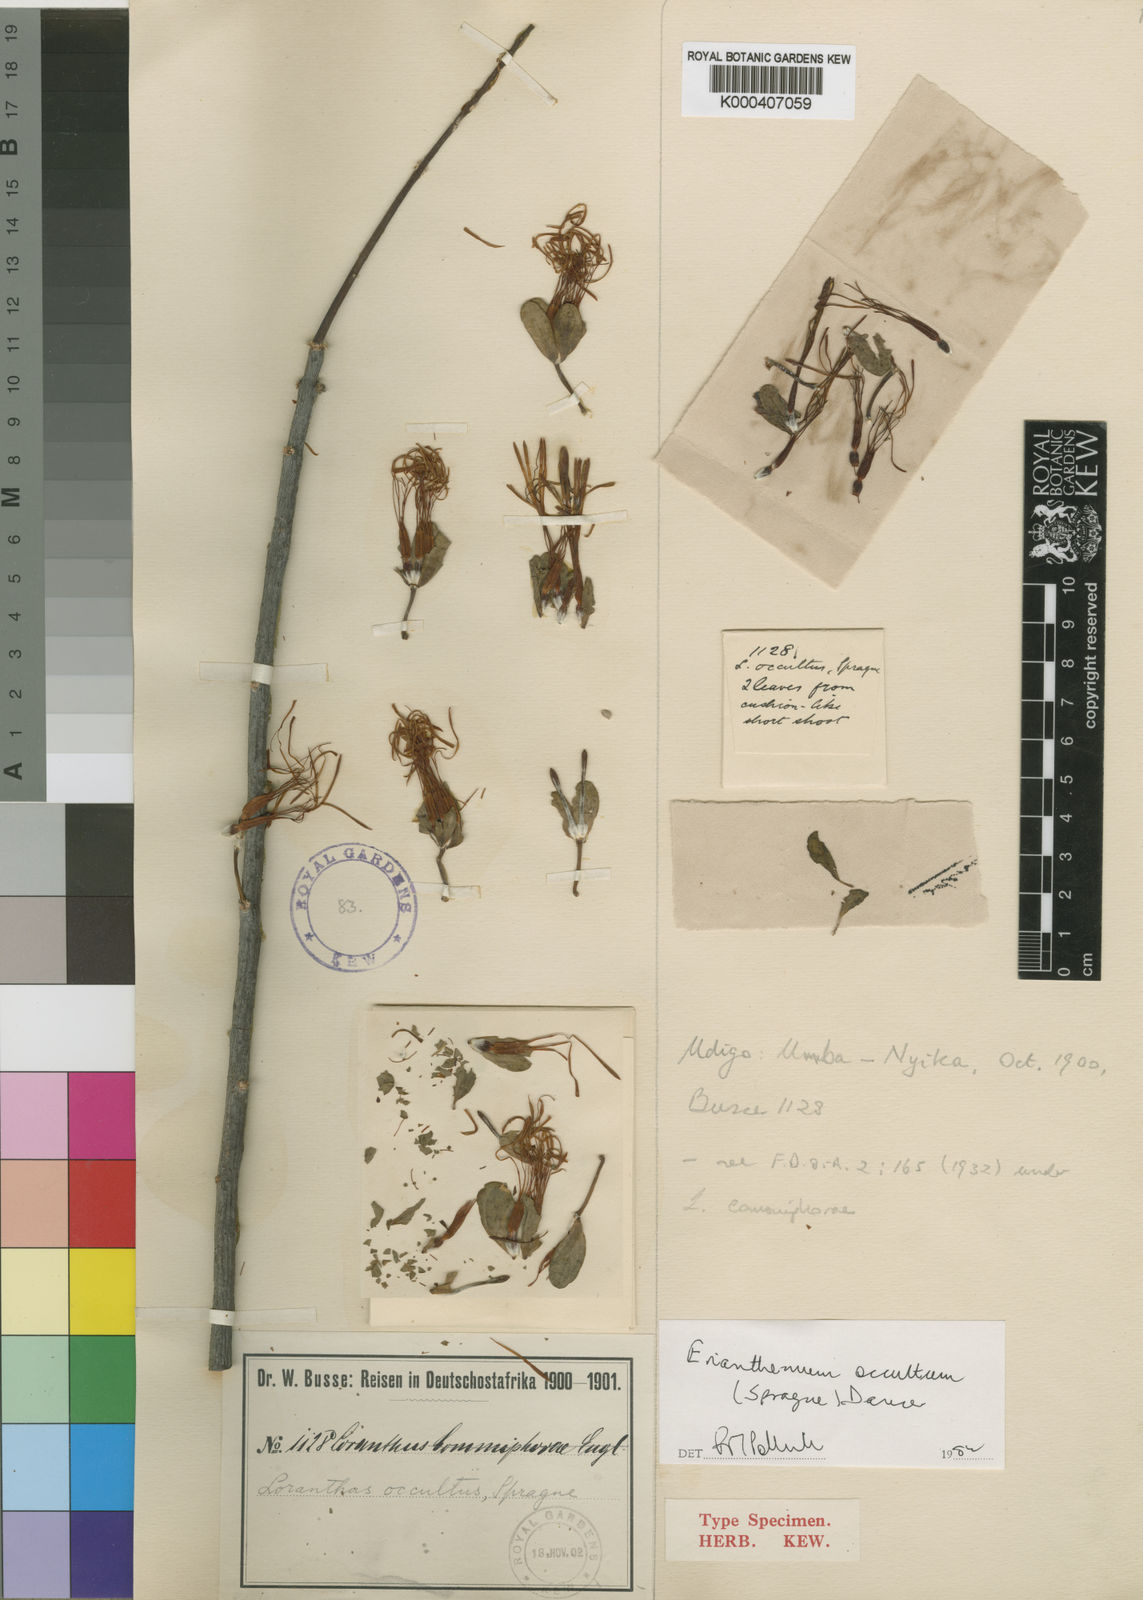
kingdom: Plantae
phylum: Tracheophyta
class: Magnoliopsida
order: Santalales
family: Loranthaceae
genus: Erianthemum
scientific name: Erianthemum occultum
